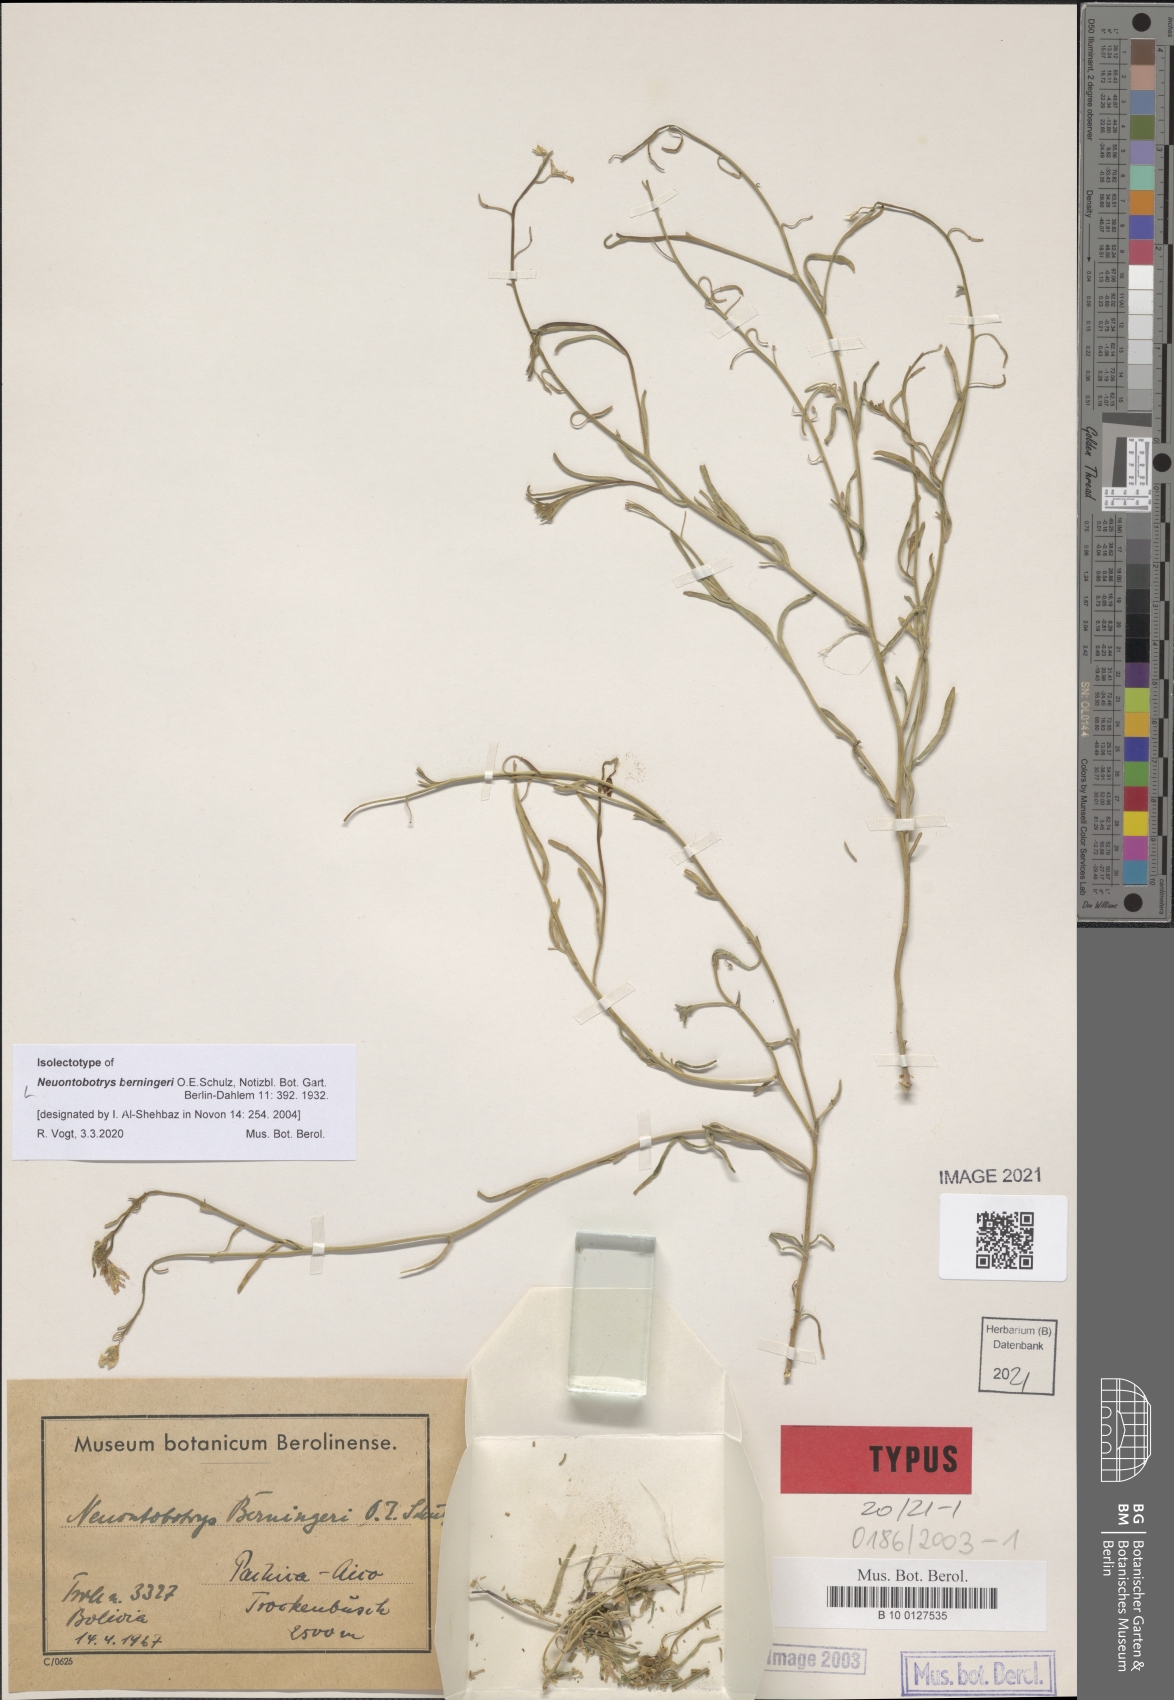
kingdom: Plantae
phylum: Tracheophyta
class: Magnoliopsida
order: Brassicales
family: Brassicaceae
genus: Neuontobotrys
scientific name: Neuontobotrys berningeri
